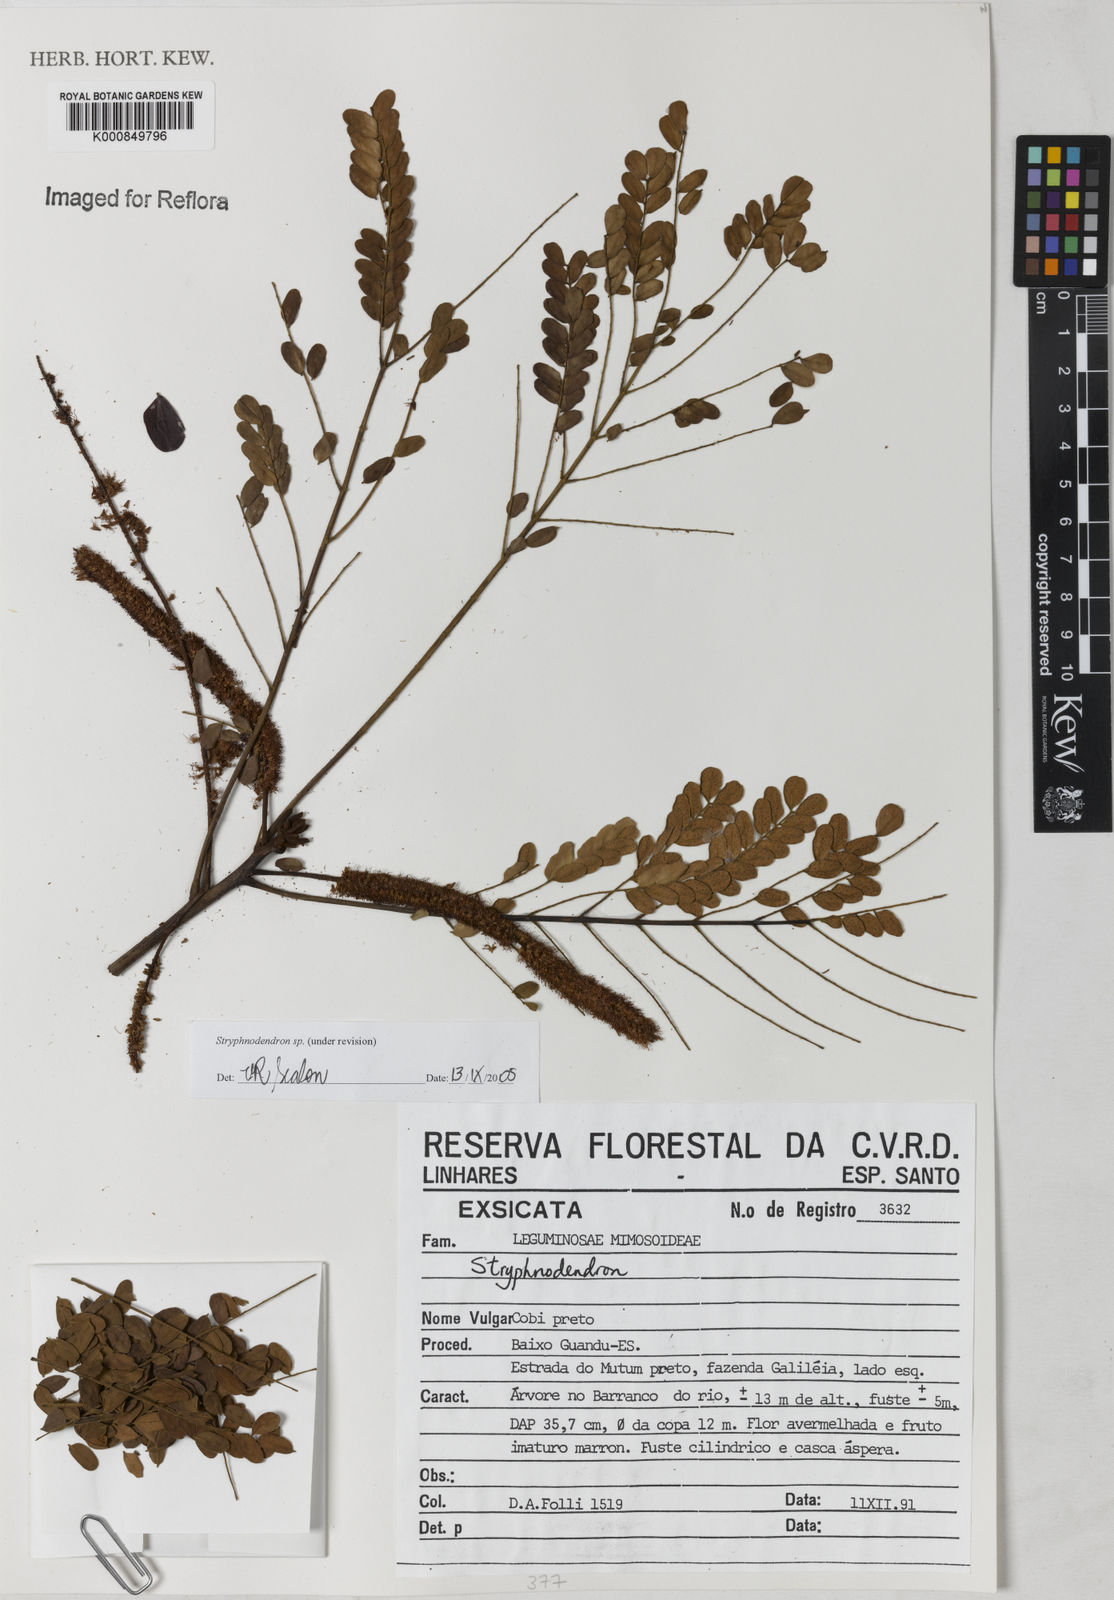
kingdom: Plantae
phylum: Tracheophyta
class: Magnoliopsida
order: Fabales
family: Fabaceae
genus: Stryphnodendron
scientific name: Stryphnodendron
